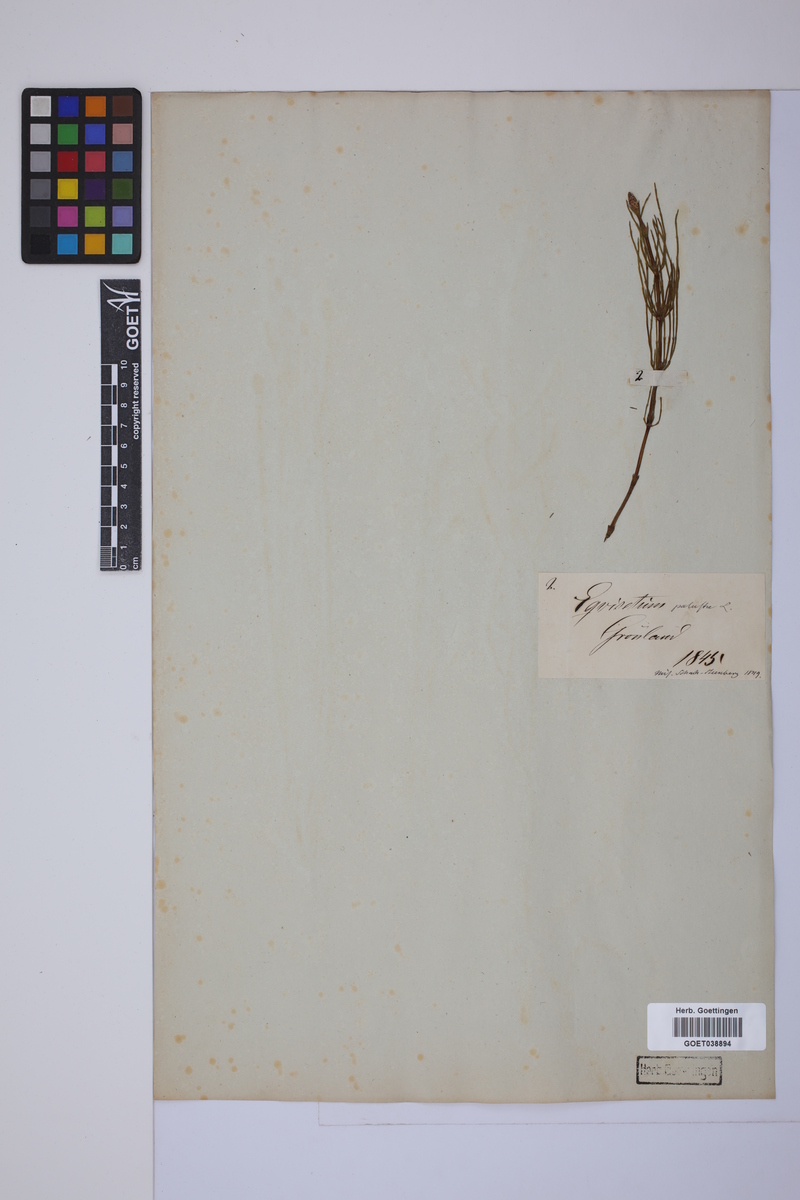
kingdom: Plantae
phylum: Tracheophyta
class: Polypodiopsida
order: Equisetales
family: Equisetaceae
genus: Equisetum
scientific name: Equisetum palustre
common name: Marsh horsetail
